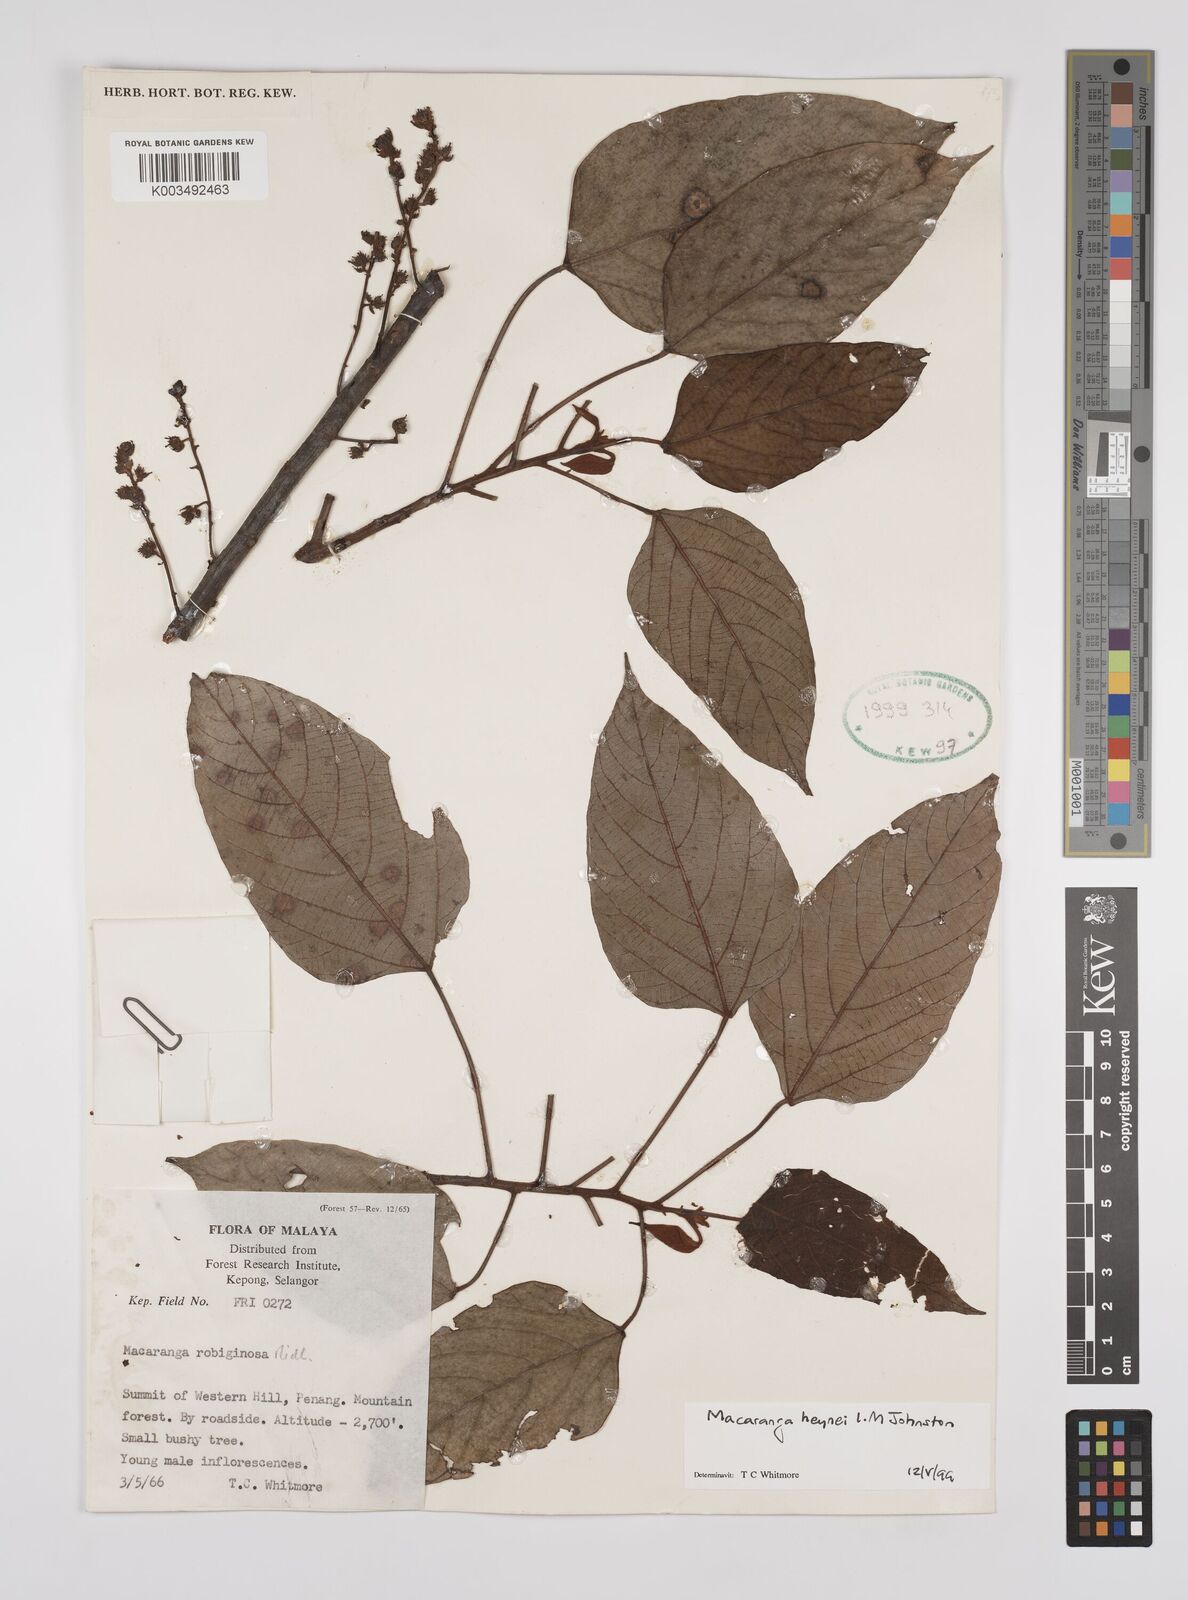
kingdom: Plantae
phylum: Tracheophyta
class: Magnoliopsida
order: Malpighiales
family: Euphorbiaceae
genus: Macaranga
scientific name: Macaranga heynei
